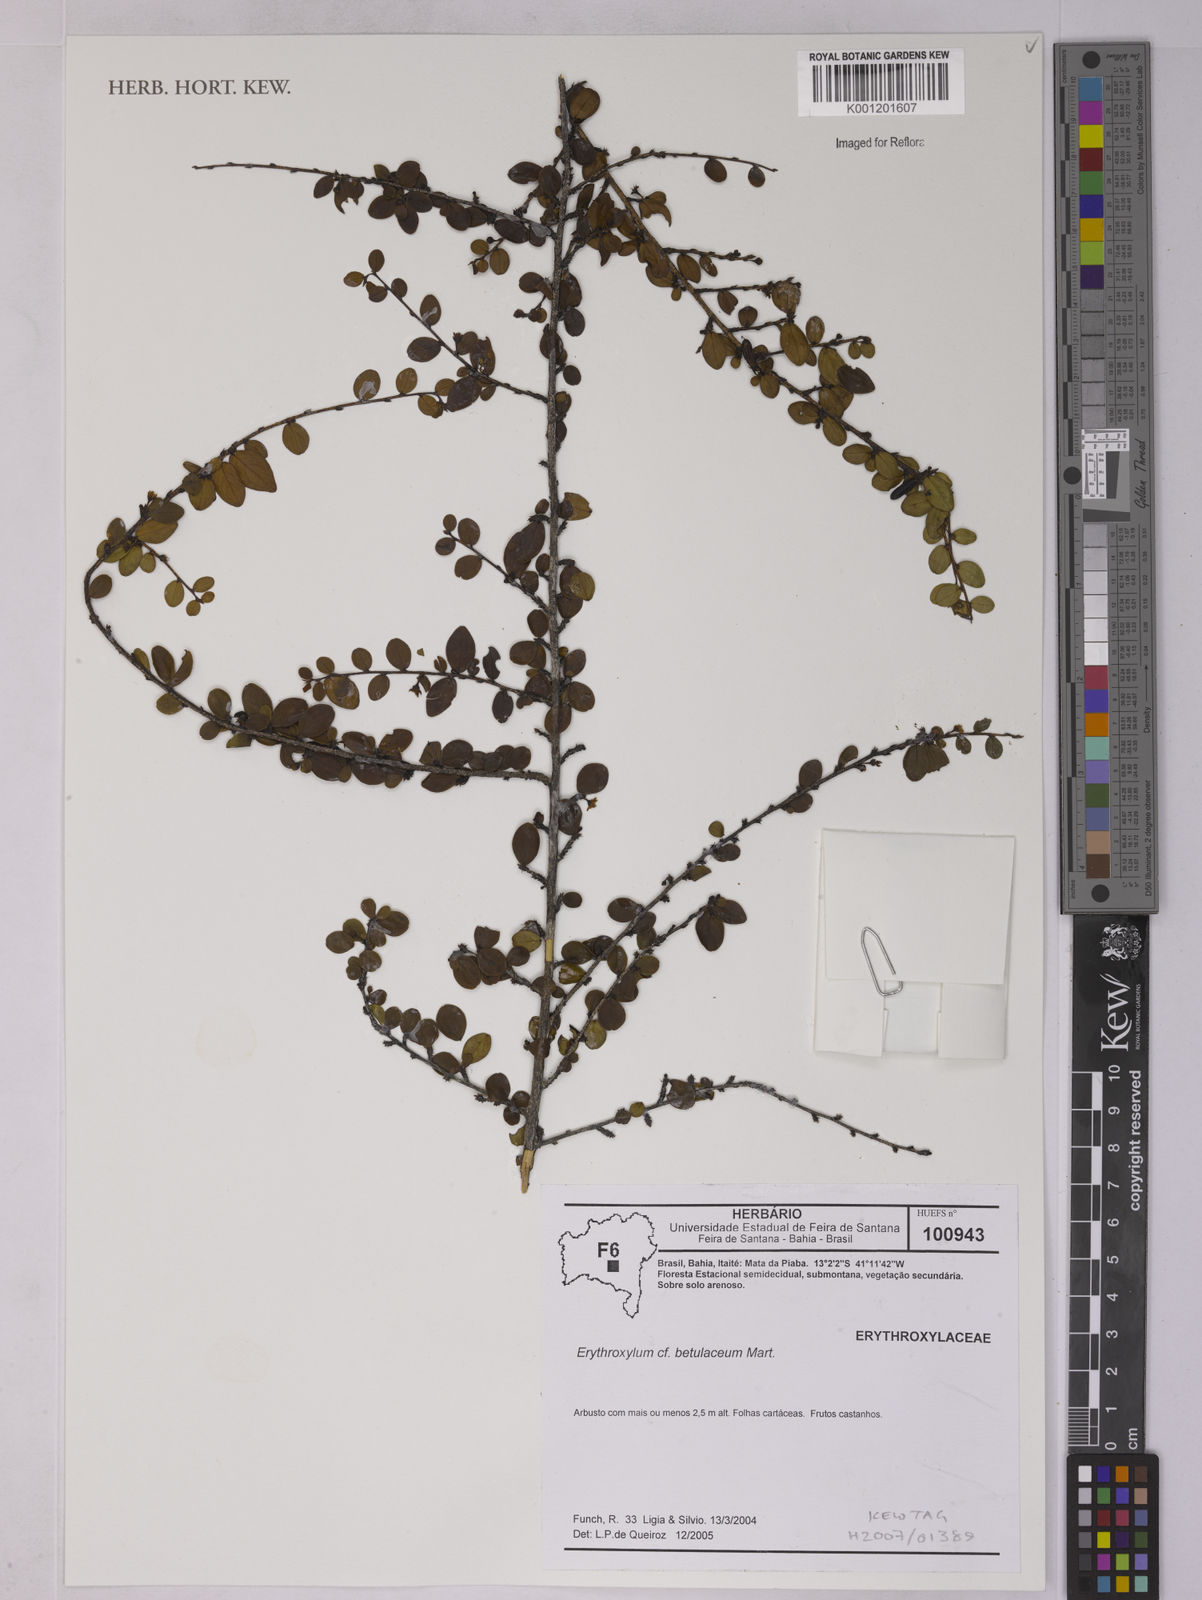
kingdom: Plantae
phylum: Tracheophyta
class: Magnoliopsida
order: Malpighiales
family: Erythroxylaceae
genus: Erythroxylum
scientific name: Erythroxylum betulaceum
